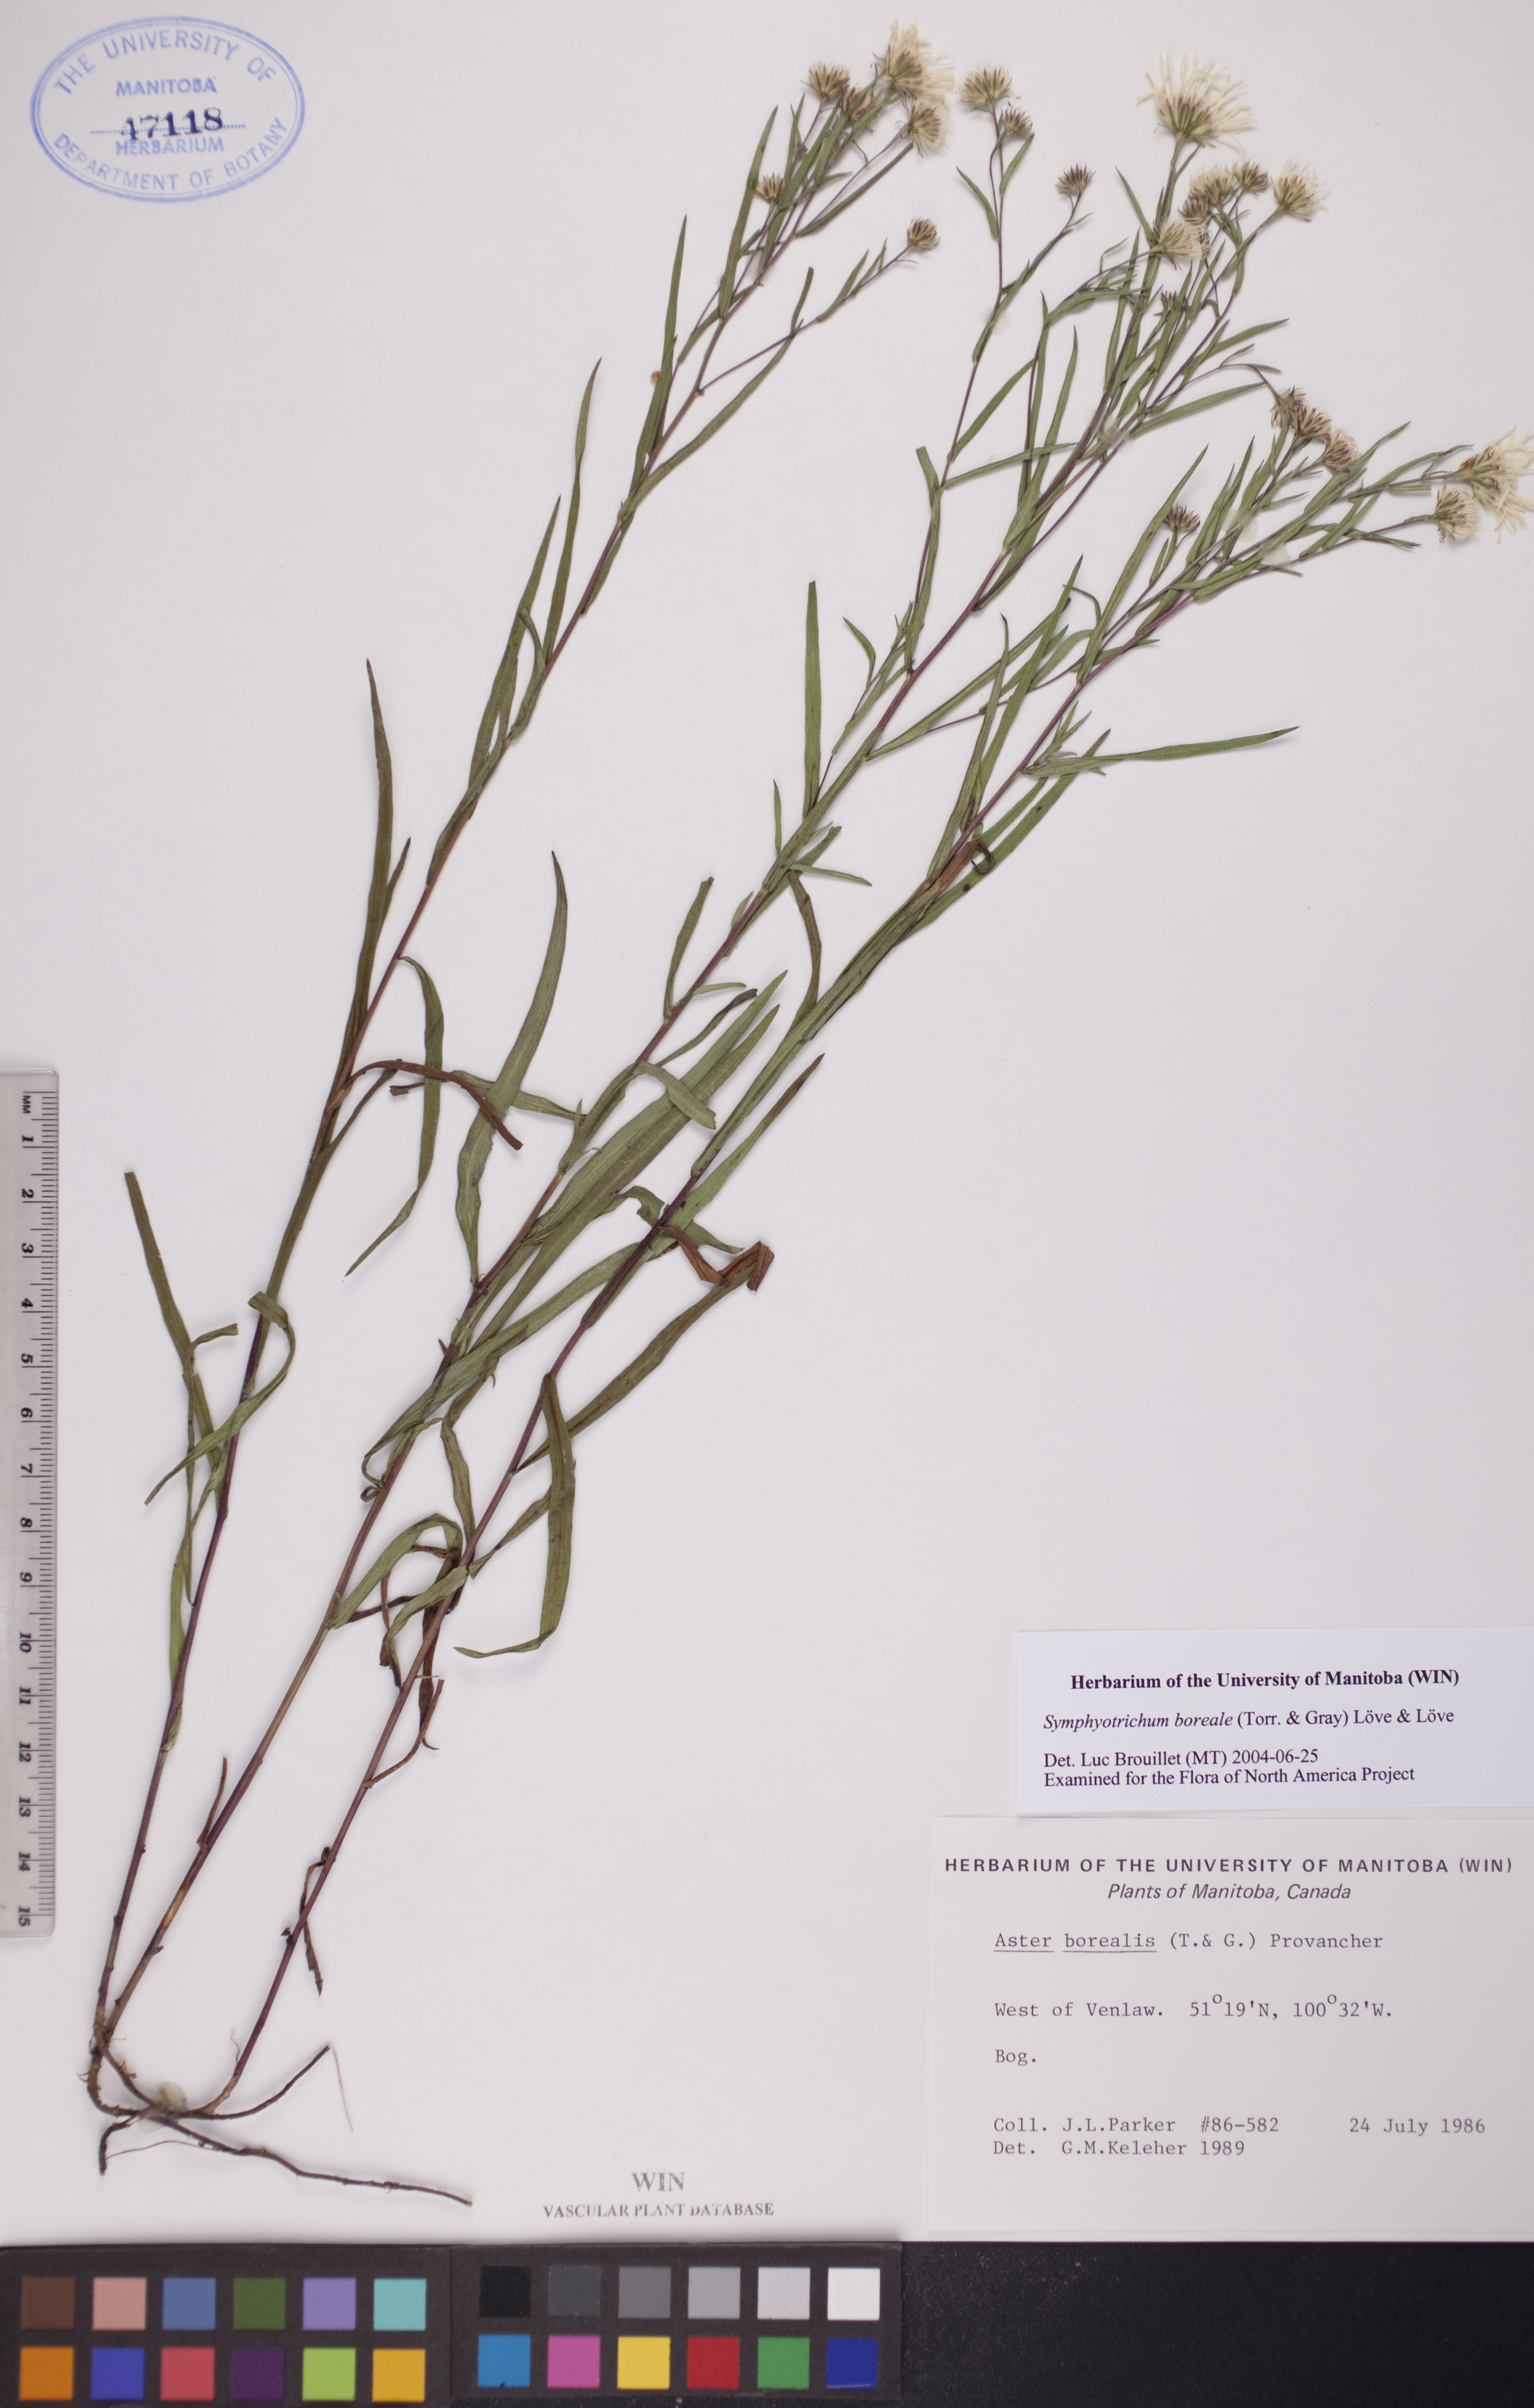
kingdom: Plantae
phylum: Tracheophyta
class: Magnoliopsida
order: Asterales
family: Asteraceae
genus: Symphyotrichum
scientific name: Symphyotrichum boreale
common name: Northern bog aster
